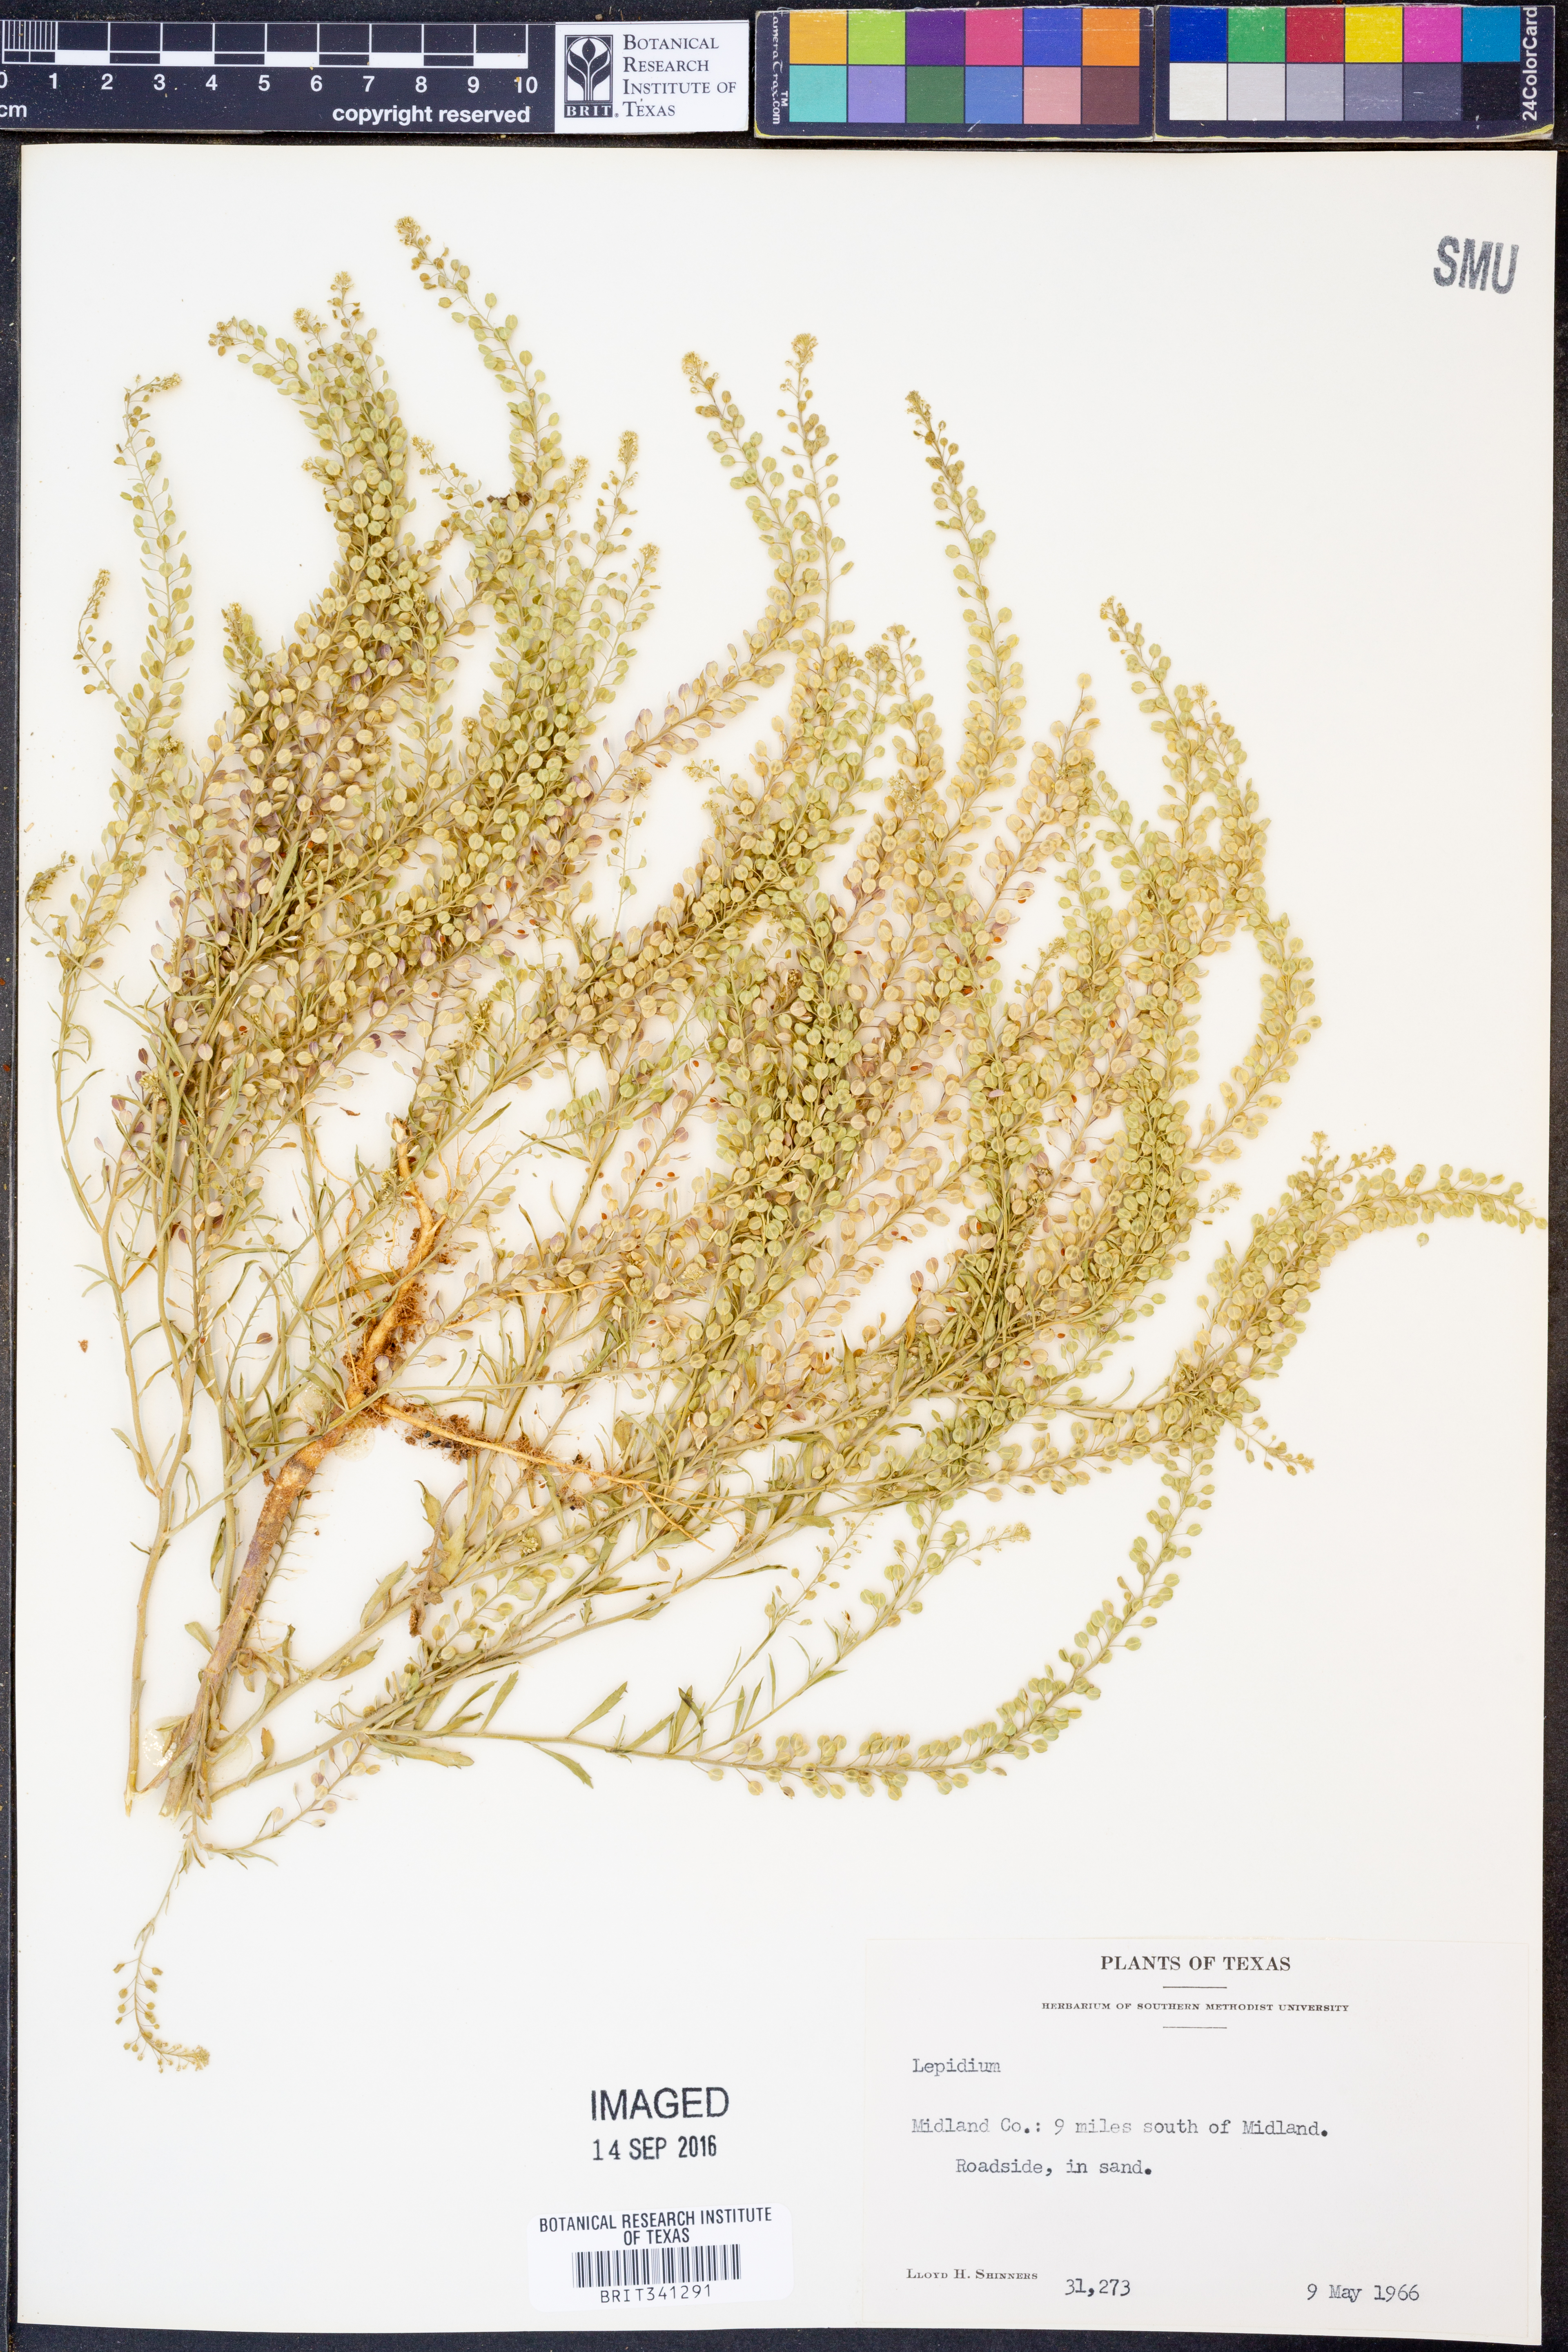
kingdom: Plantae
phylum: Tracheophyta
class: Magnoliopsida
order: Brassicales
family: Brassicaceae
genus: Lepidium
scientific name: Lepidium
